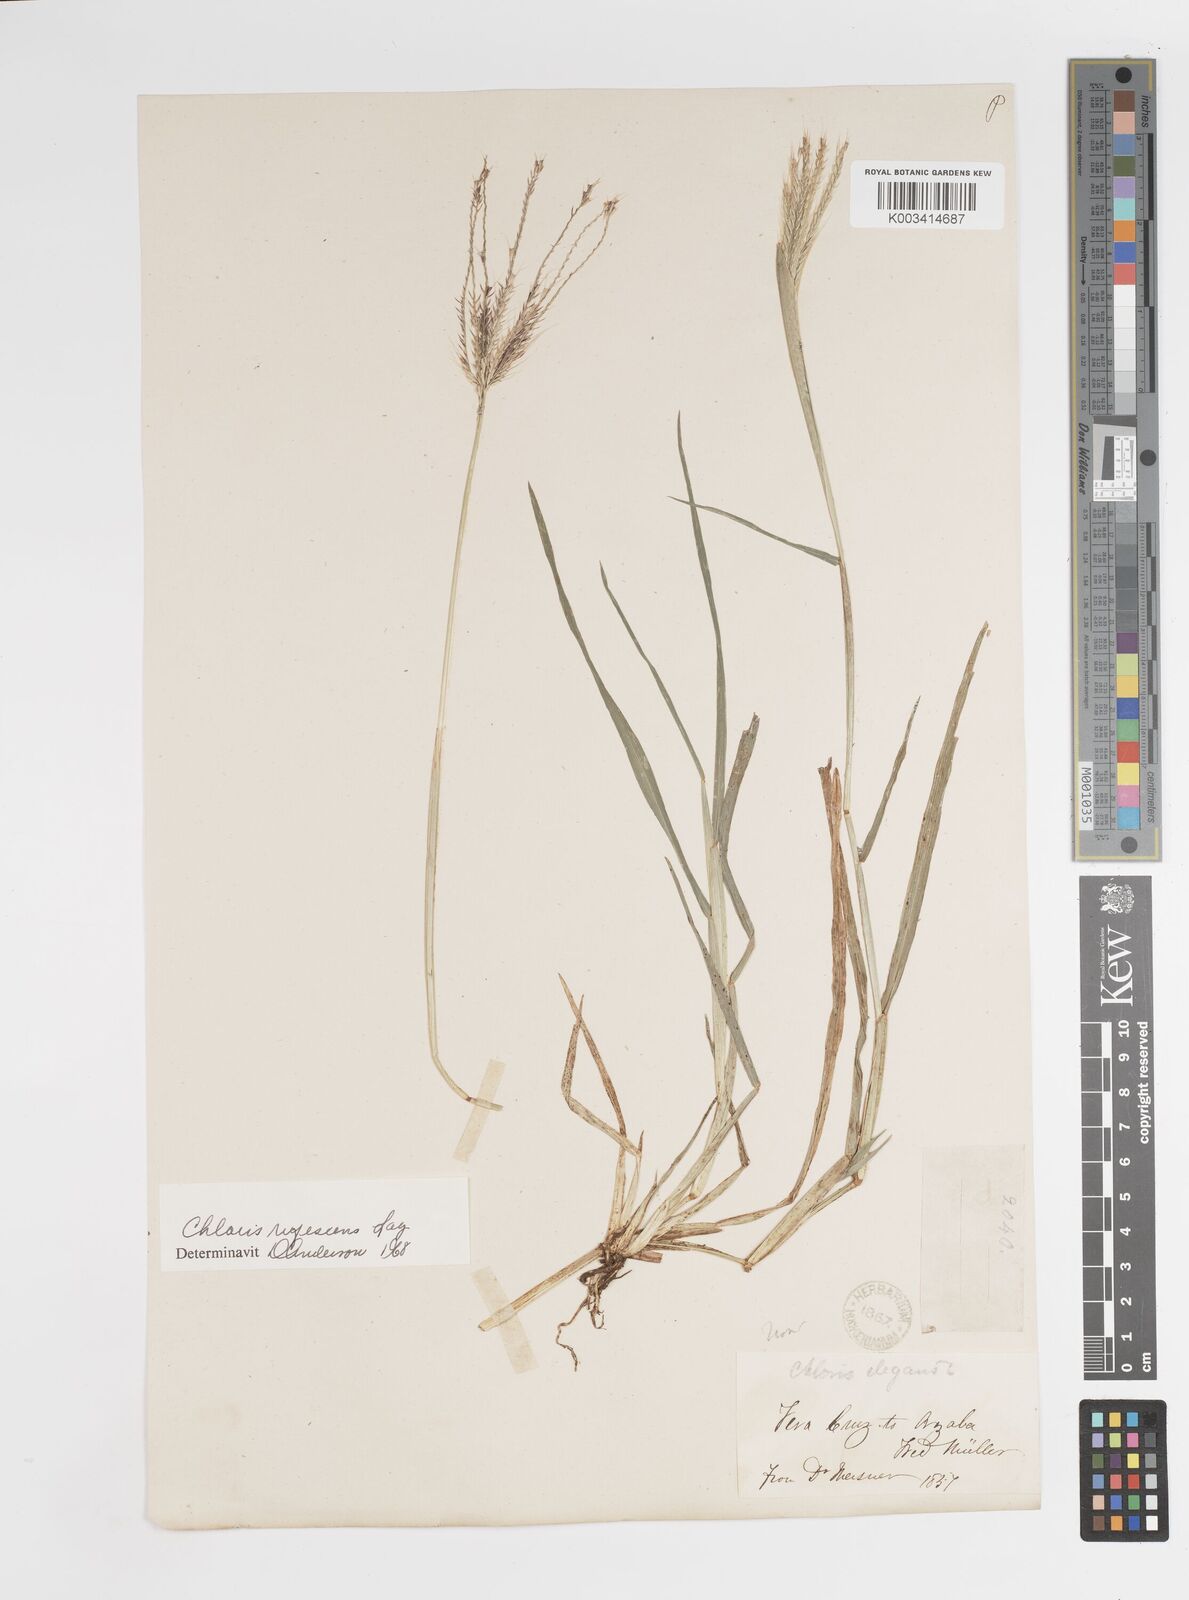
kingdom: Plantae
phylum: Tracheophyta
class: Liliopsida
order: Poales
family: Poaceae
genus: Chloris
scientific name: Chloris rufescens
